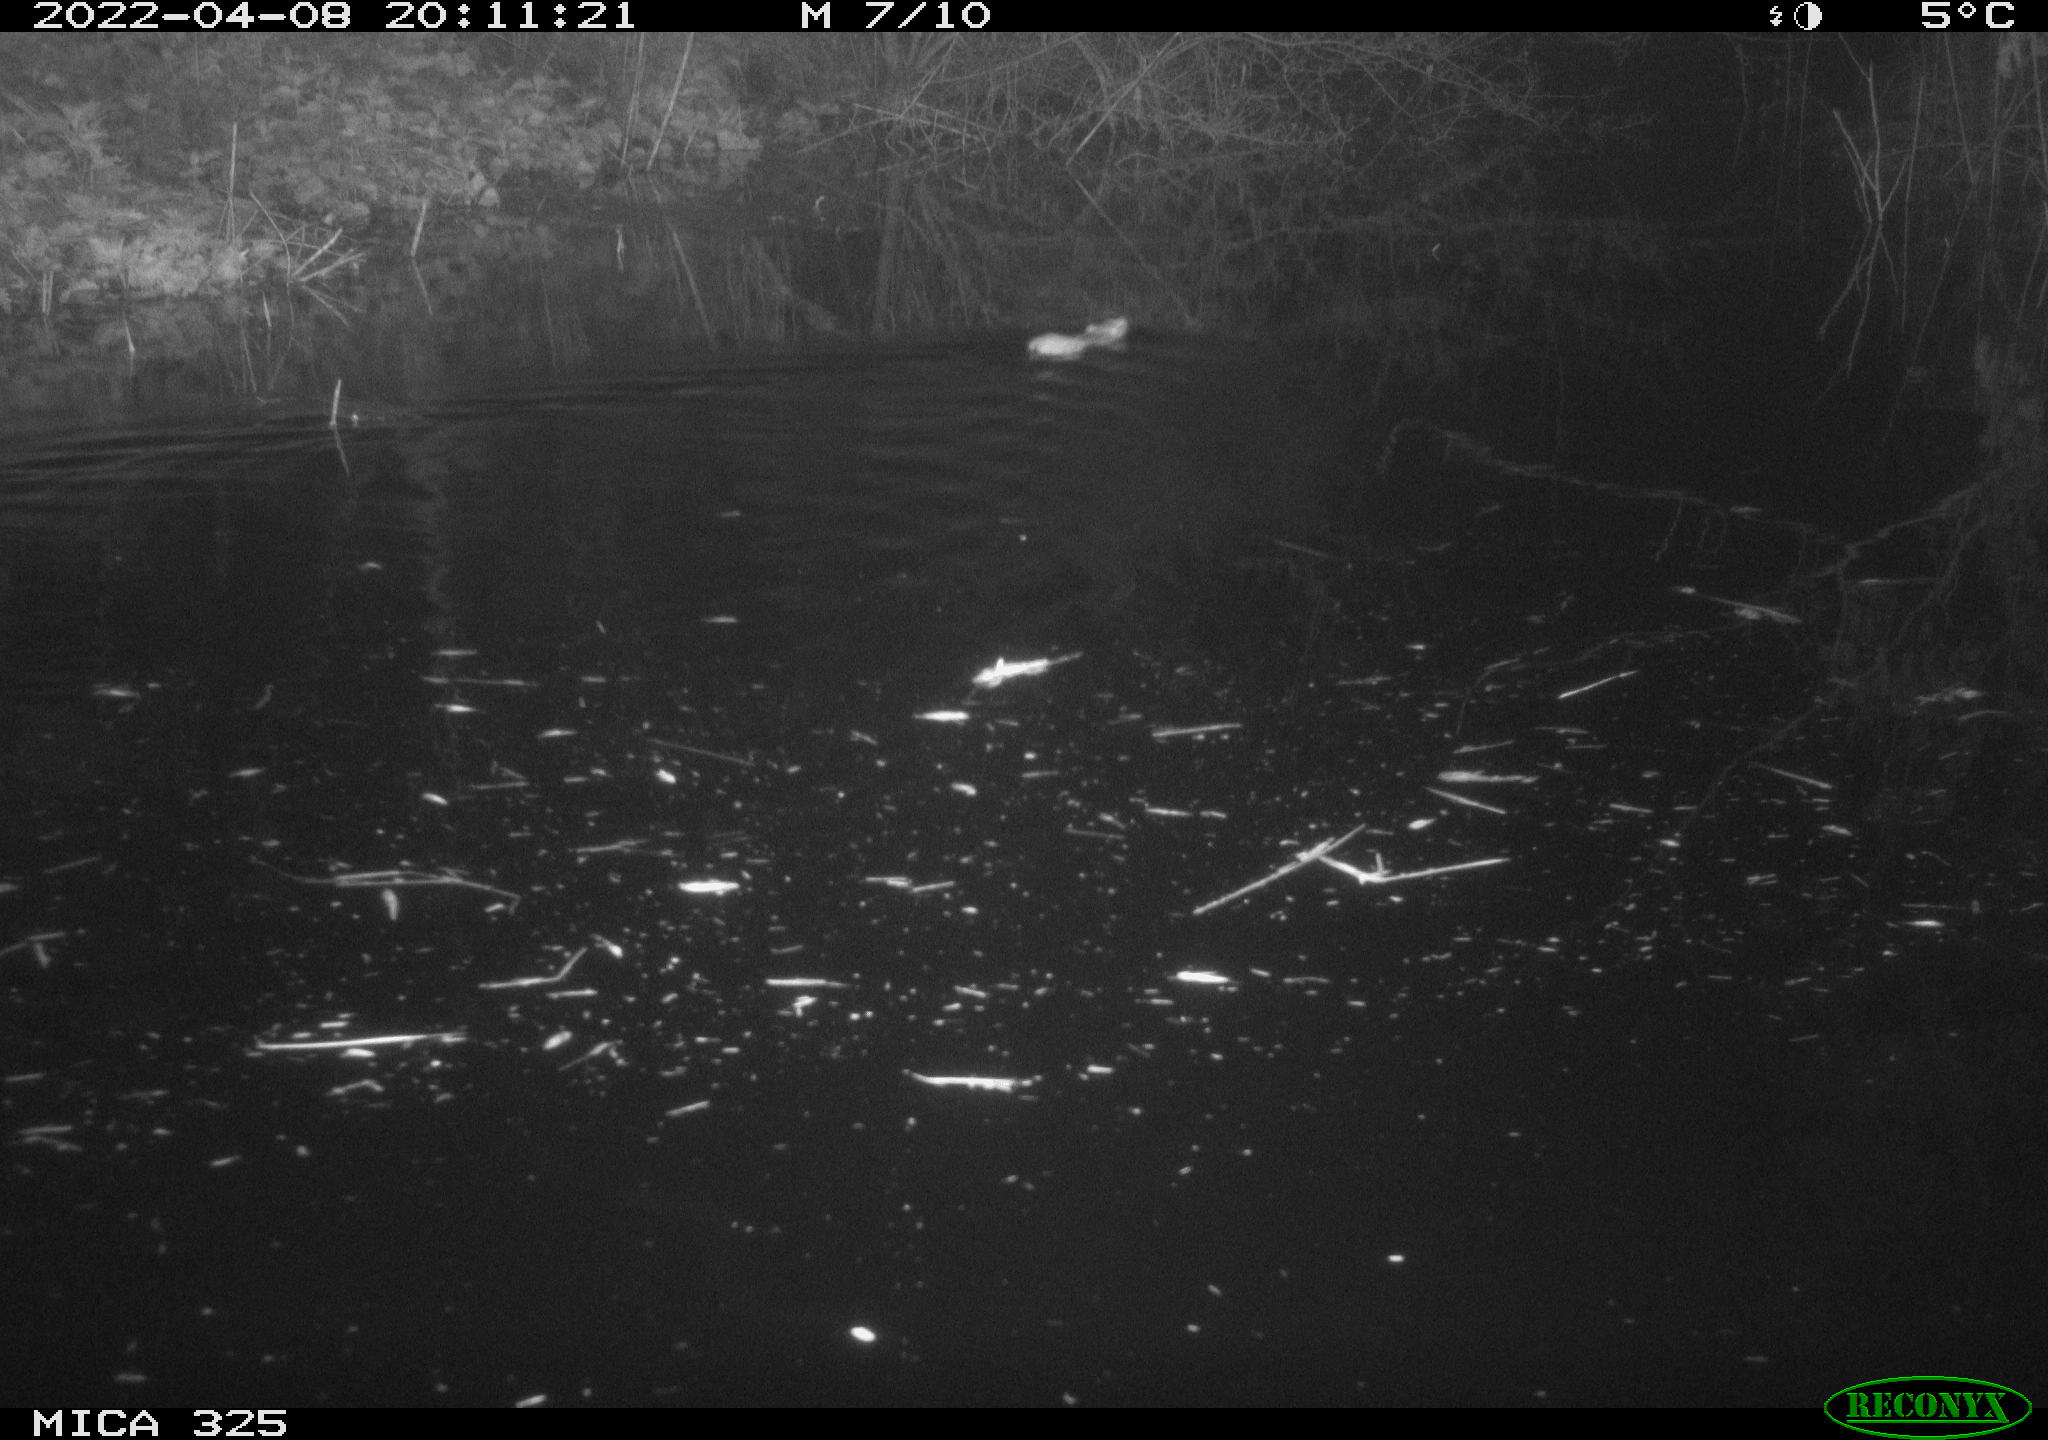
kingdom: Animalia
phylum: Chordata
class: Mammalia
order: Rodentia
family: Muridae
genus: Rattus
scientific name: Rattus norvegicus
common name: Brown rat
